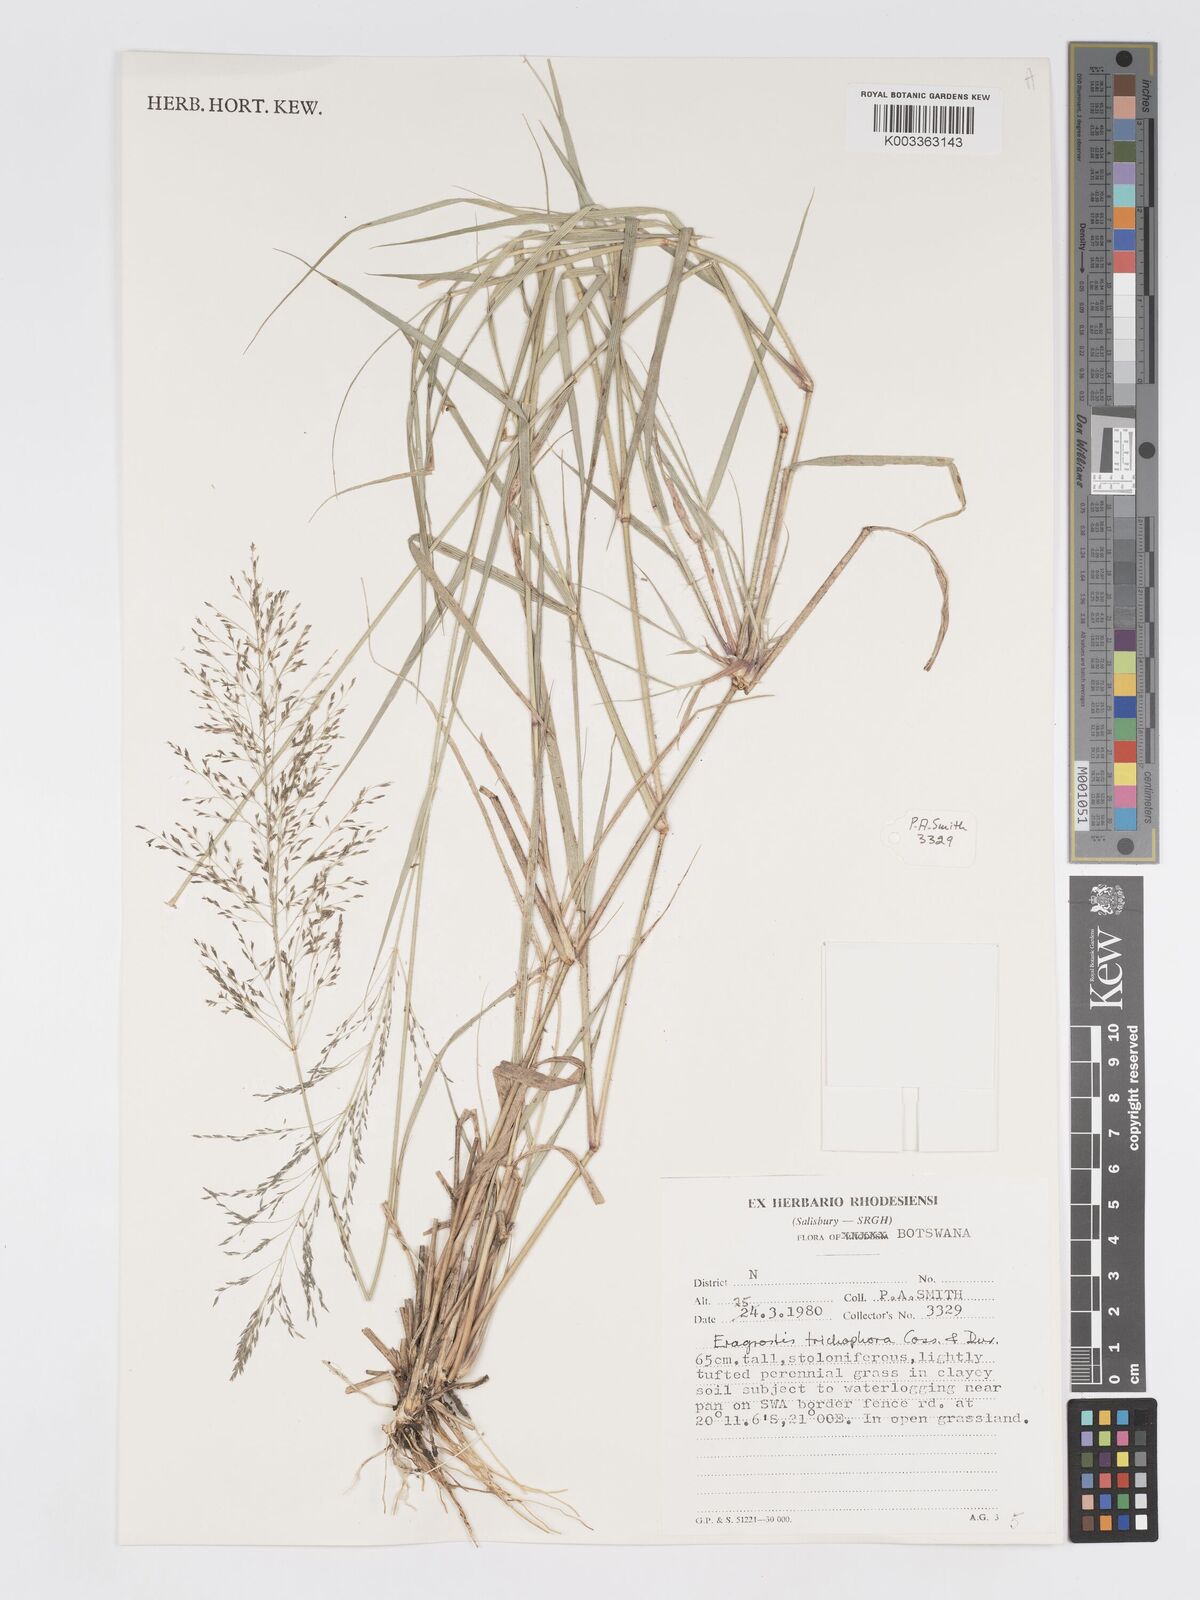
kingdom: Plantae
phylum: Tracheophyta
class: Liliopsida
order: Poales
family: Poaceae
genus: Eragrostis
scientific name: Eragrostis cylindriflora
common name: Cylinderflower lovegrass
